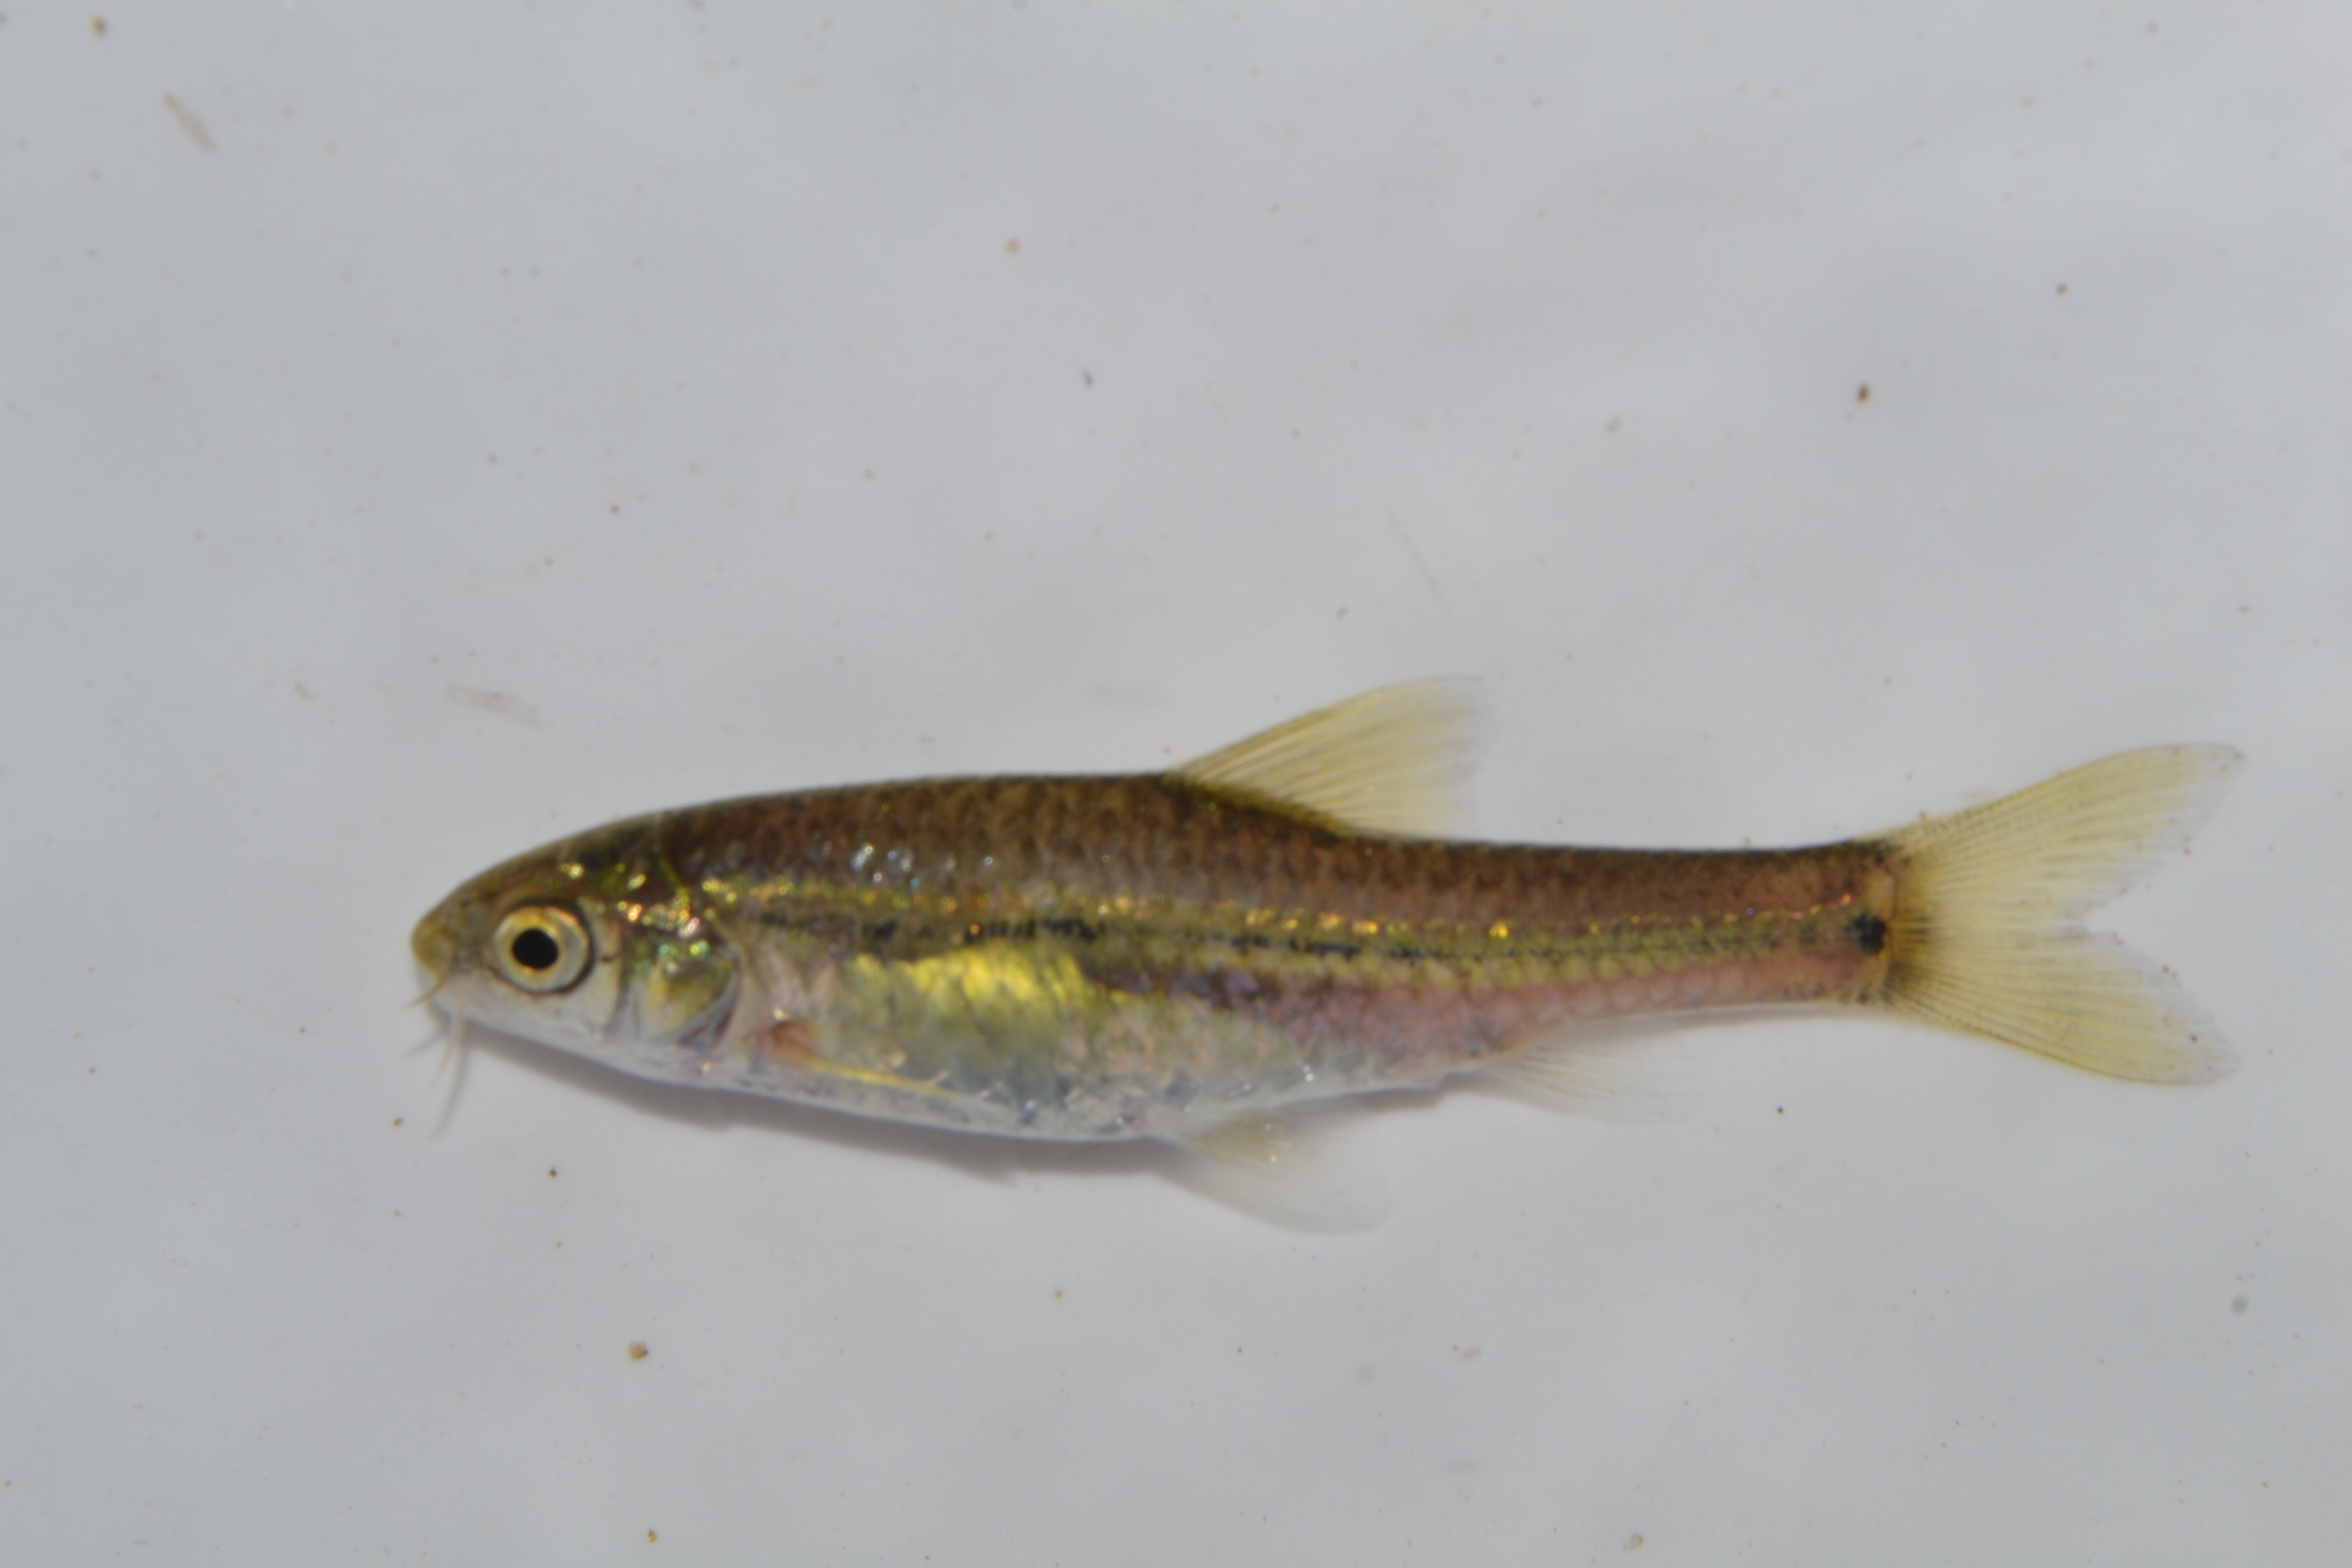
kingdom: Animalia
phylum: Chordata
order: Cypriniformes
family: Cyprinidae
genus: Enteromius
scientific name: Enteromius viviparus
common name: Bowstripe barb
